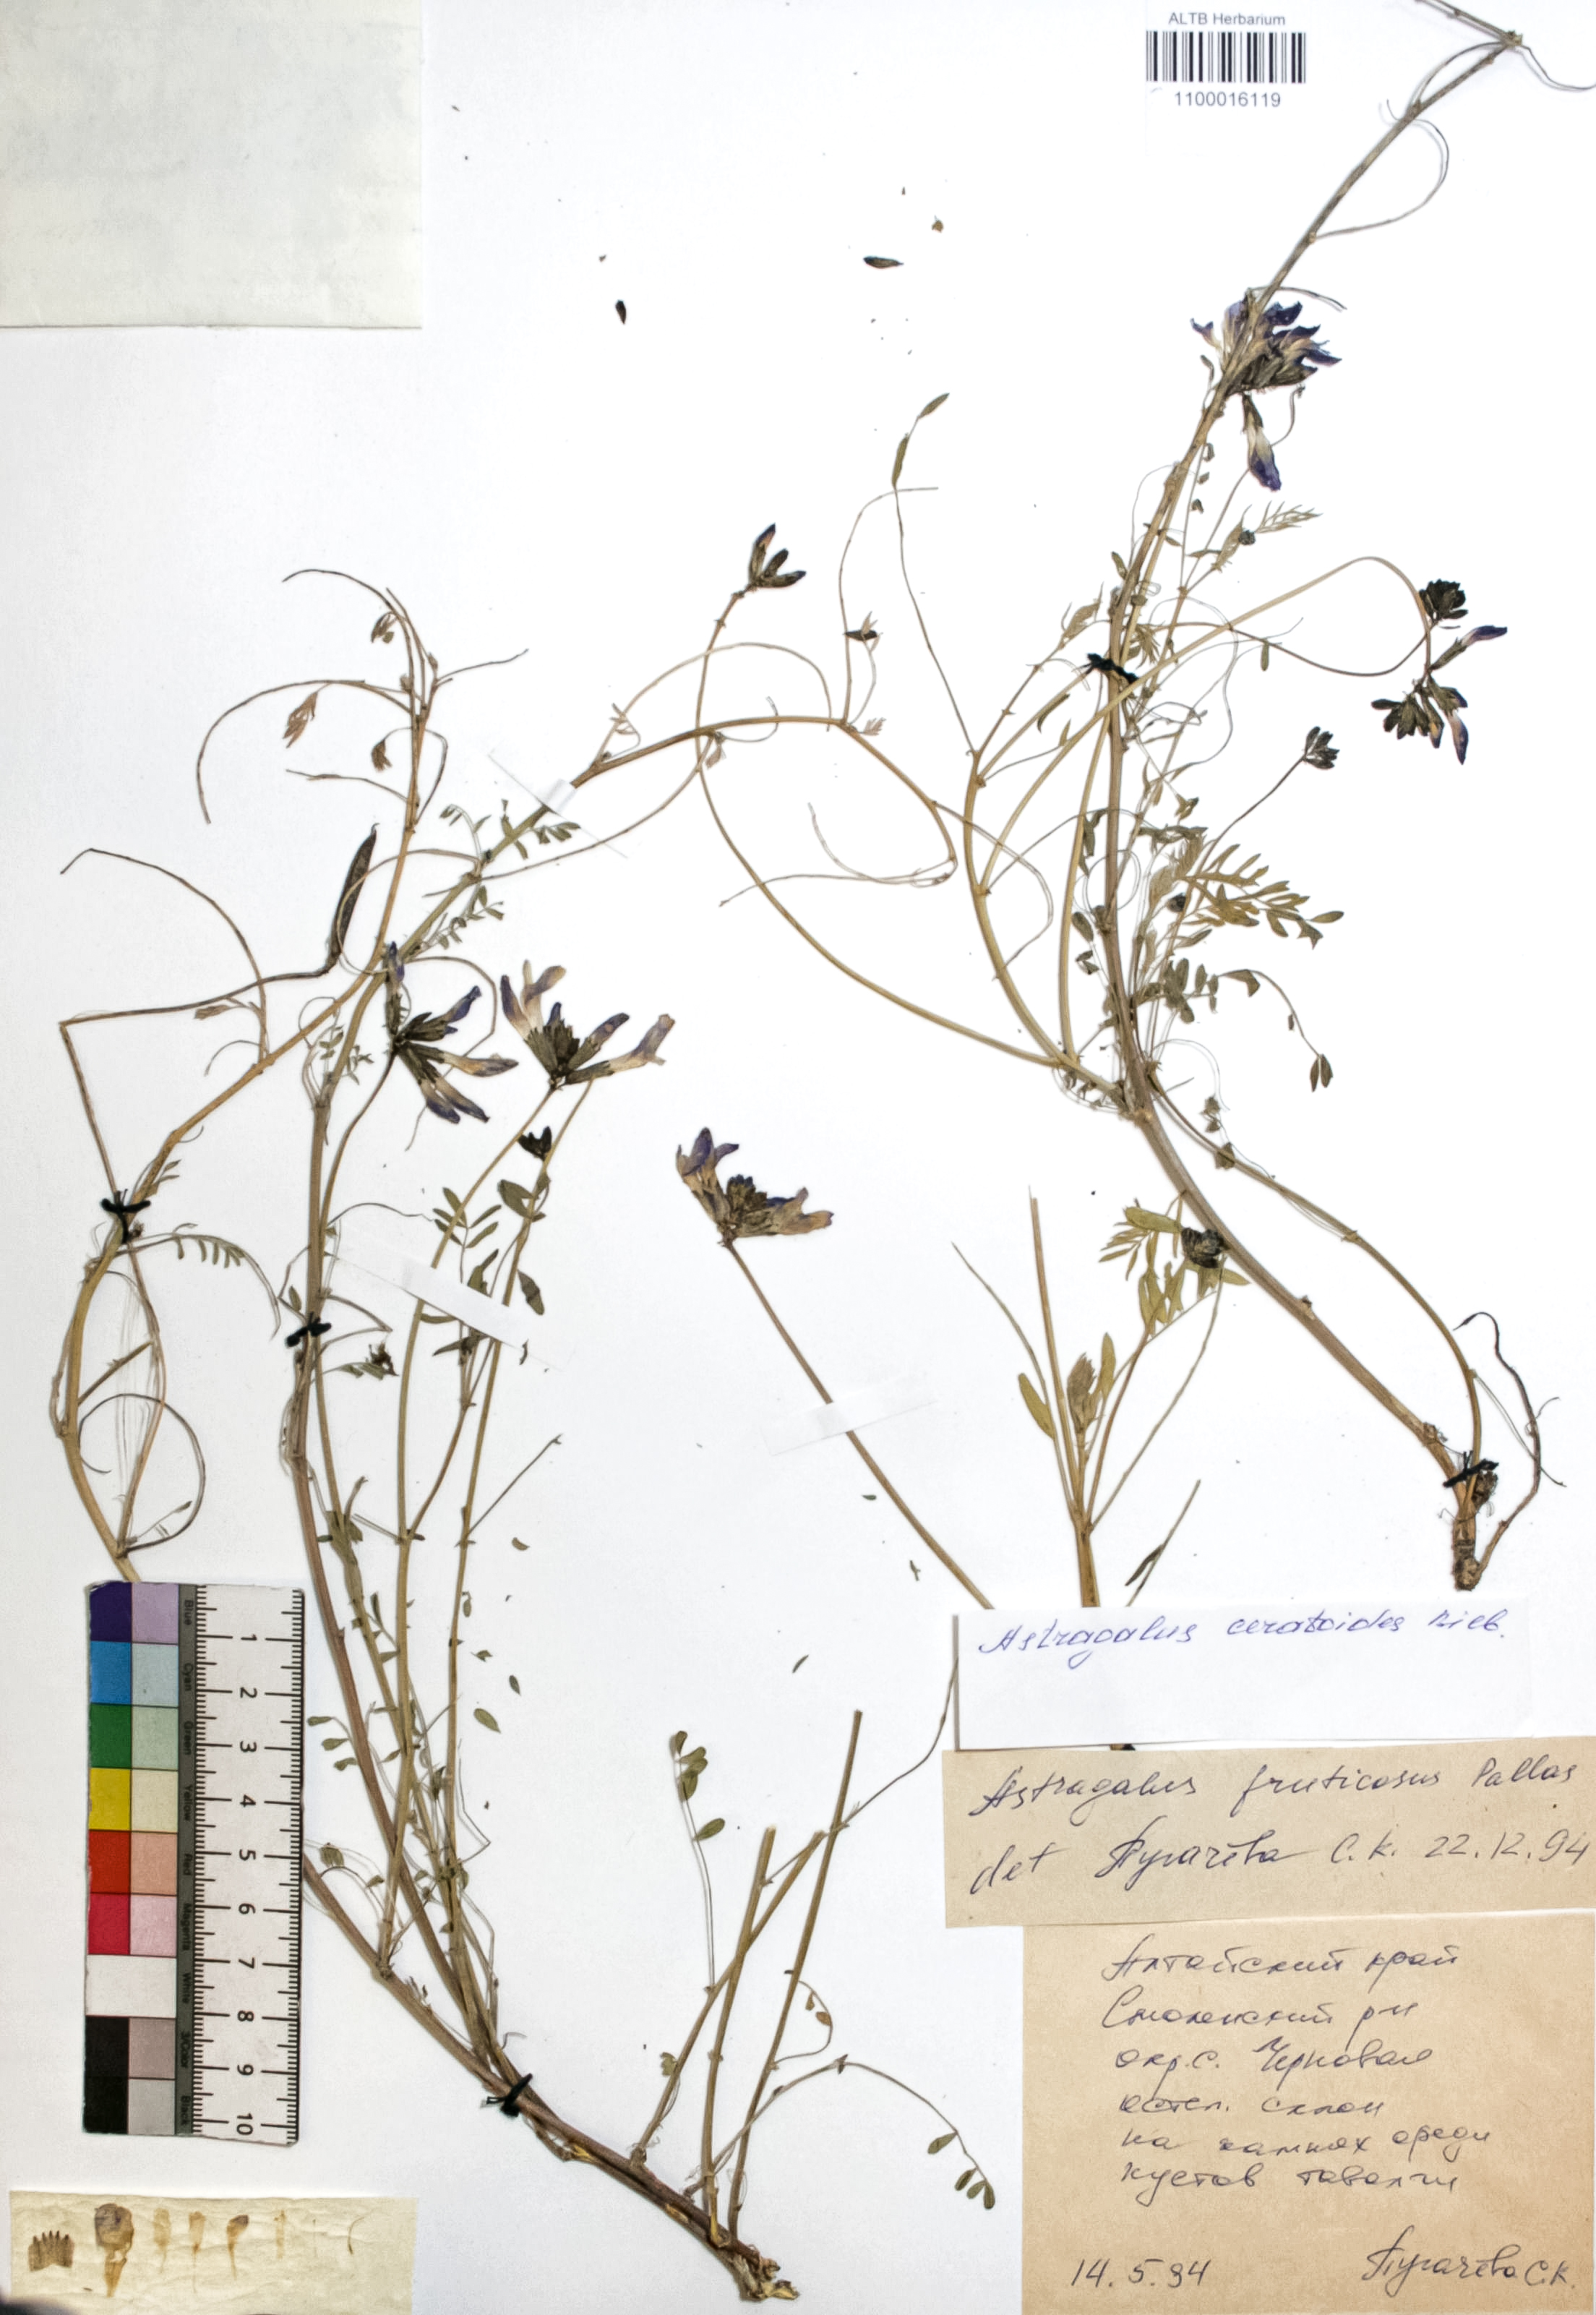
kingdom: Plantae
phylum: Tracheophyta
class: Magnoliopsida
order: Fabales
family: Fabaceae
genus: Astragalus
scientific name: Astragalus syriacus
